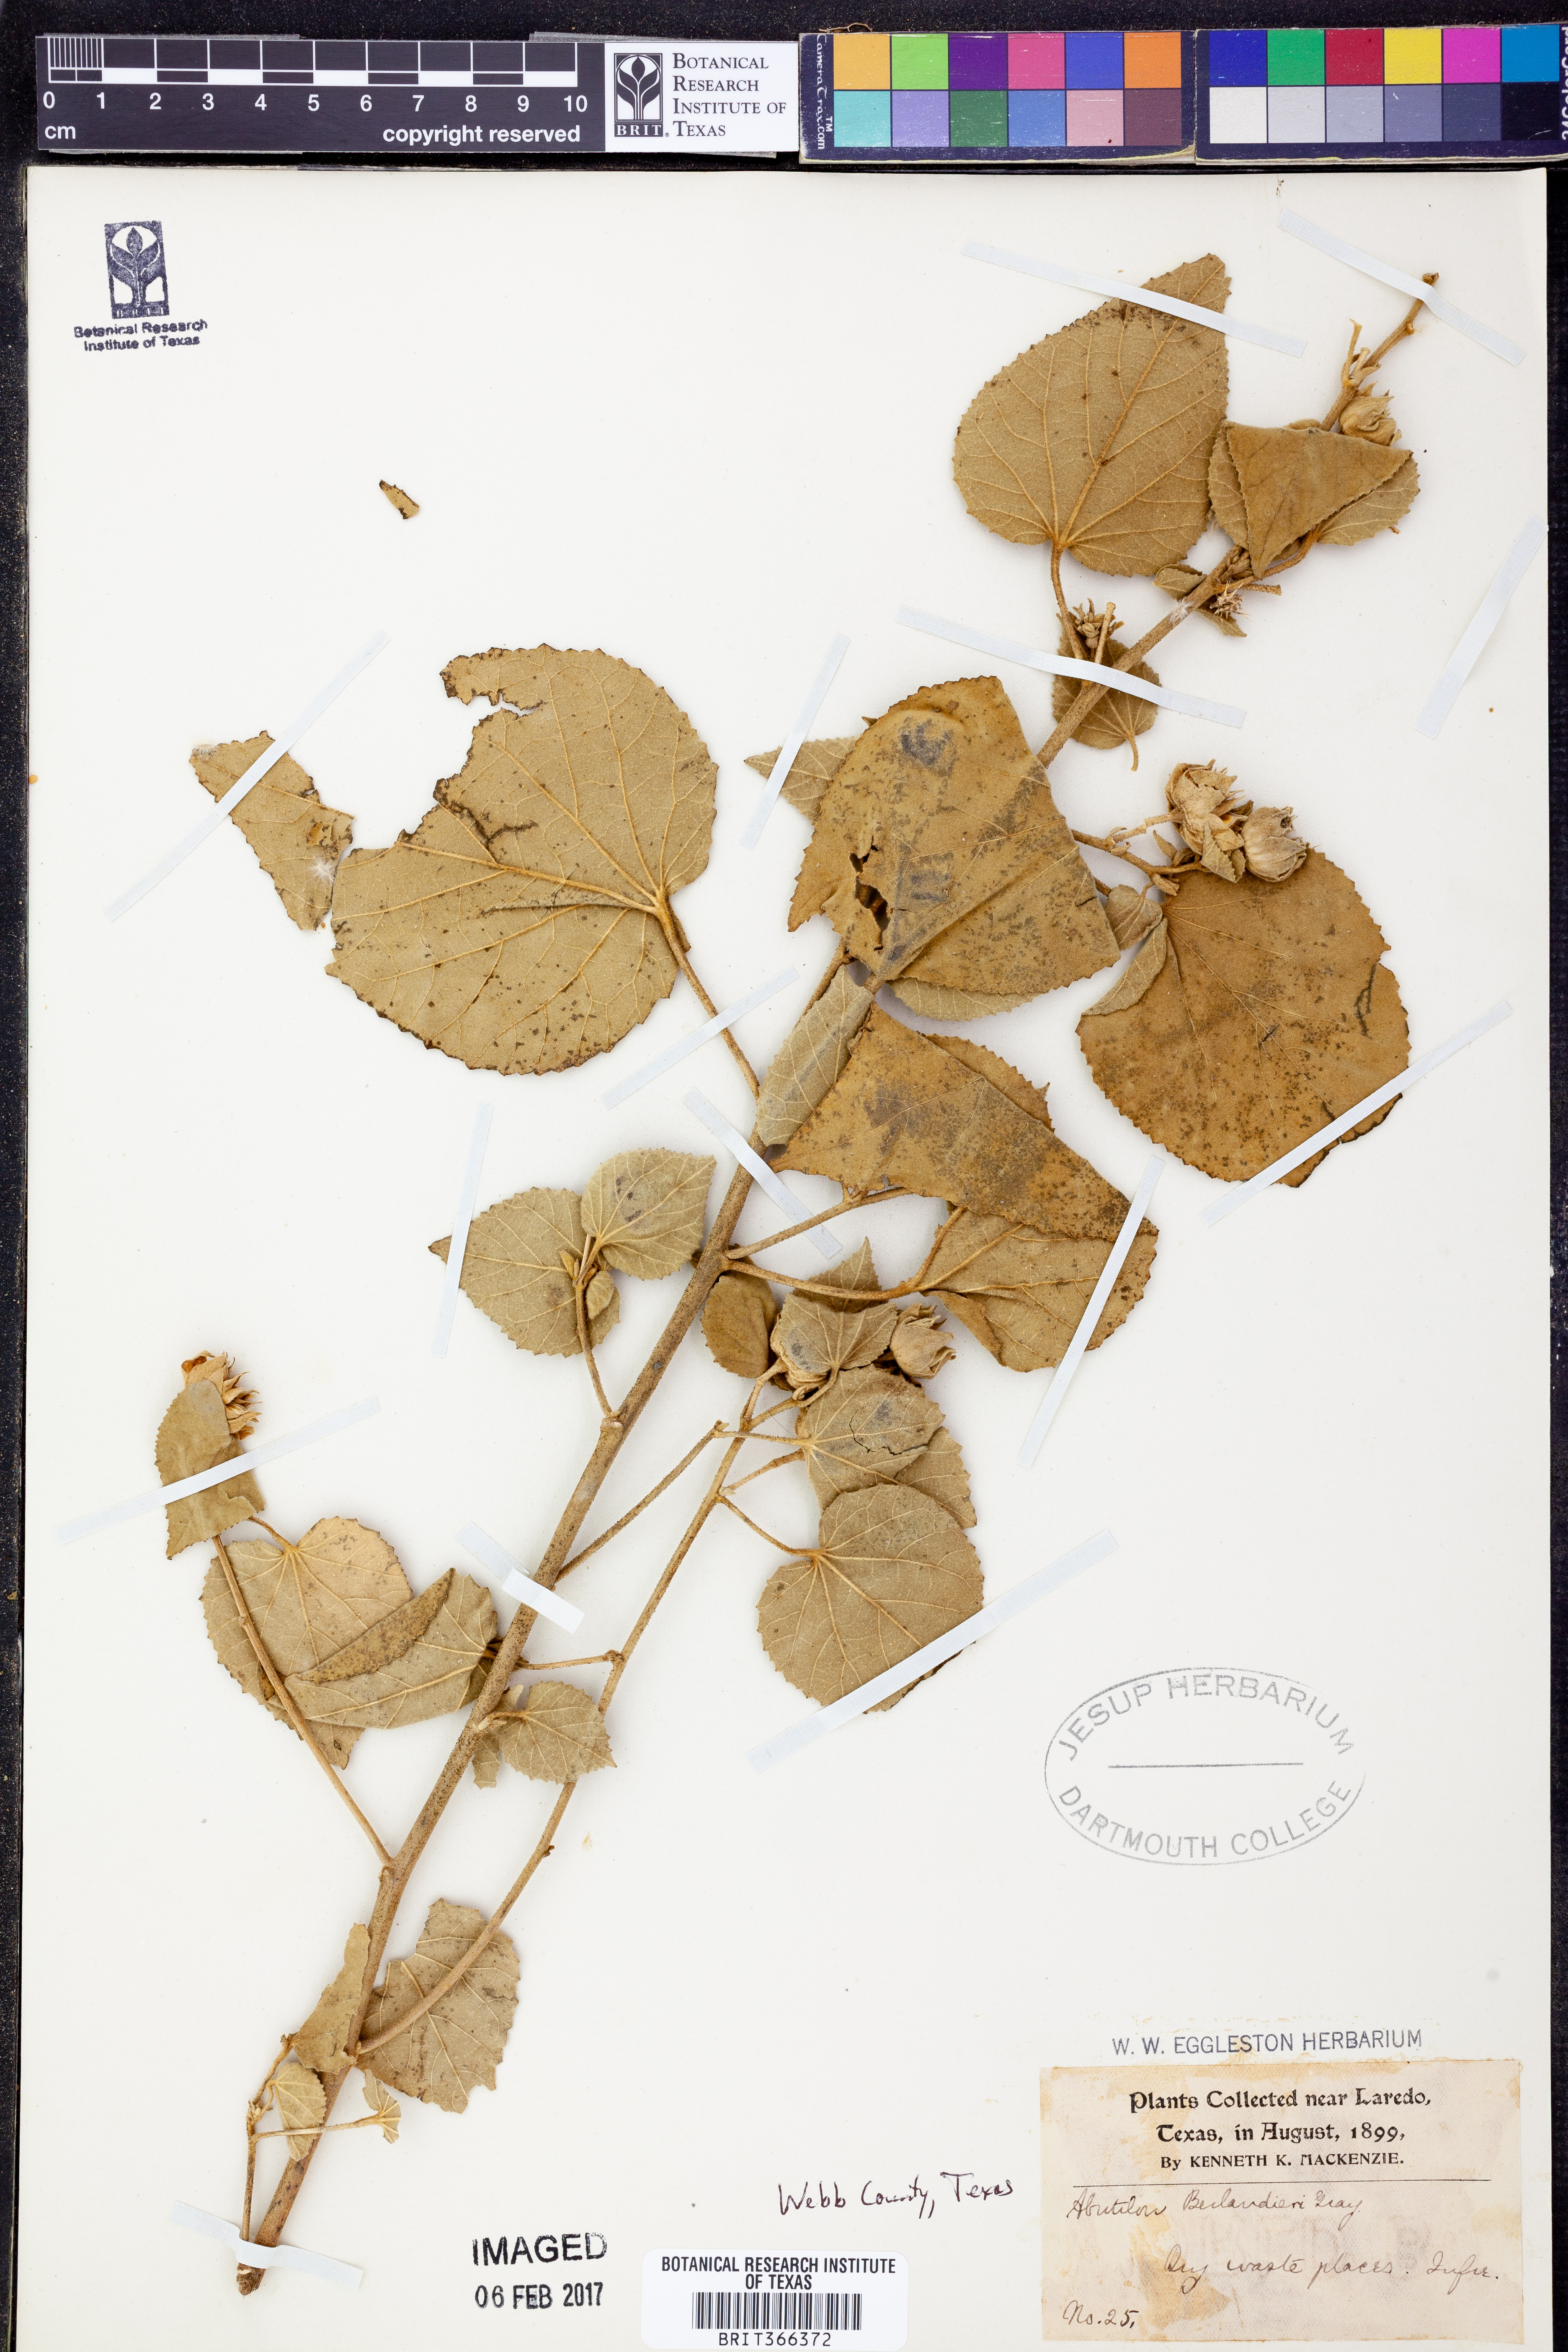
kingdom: Plantae
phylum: Tracheophyta
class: Magnoliopsida
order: Malvales
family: Malvaceae
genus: Abutilon
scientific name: Abutilon berlandieri
